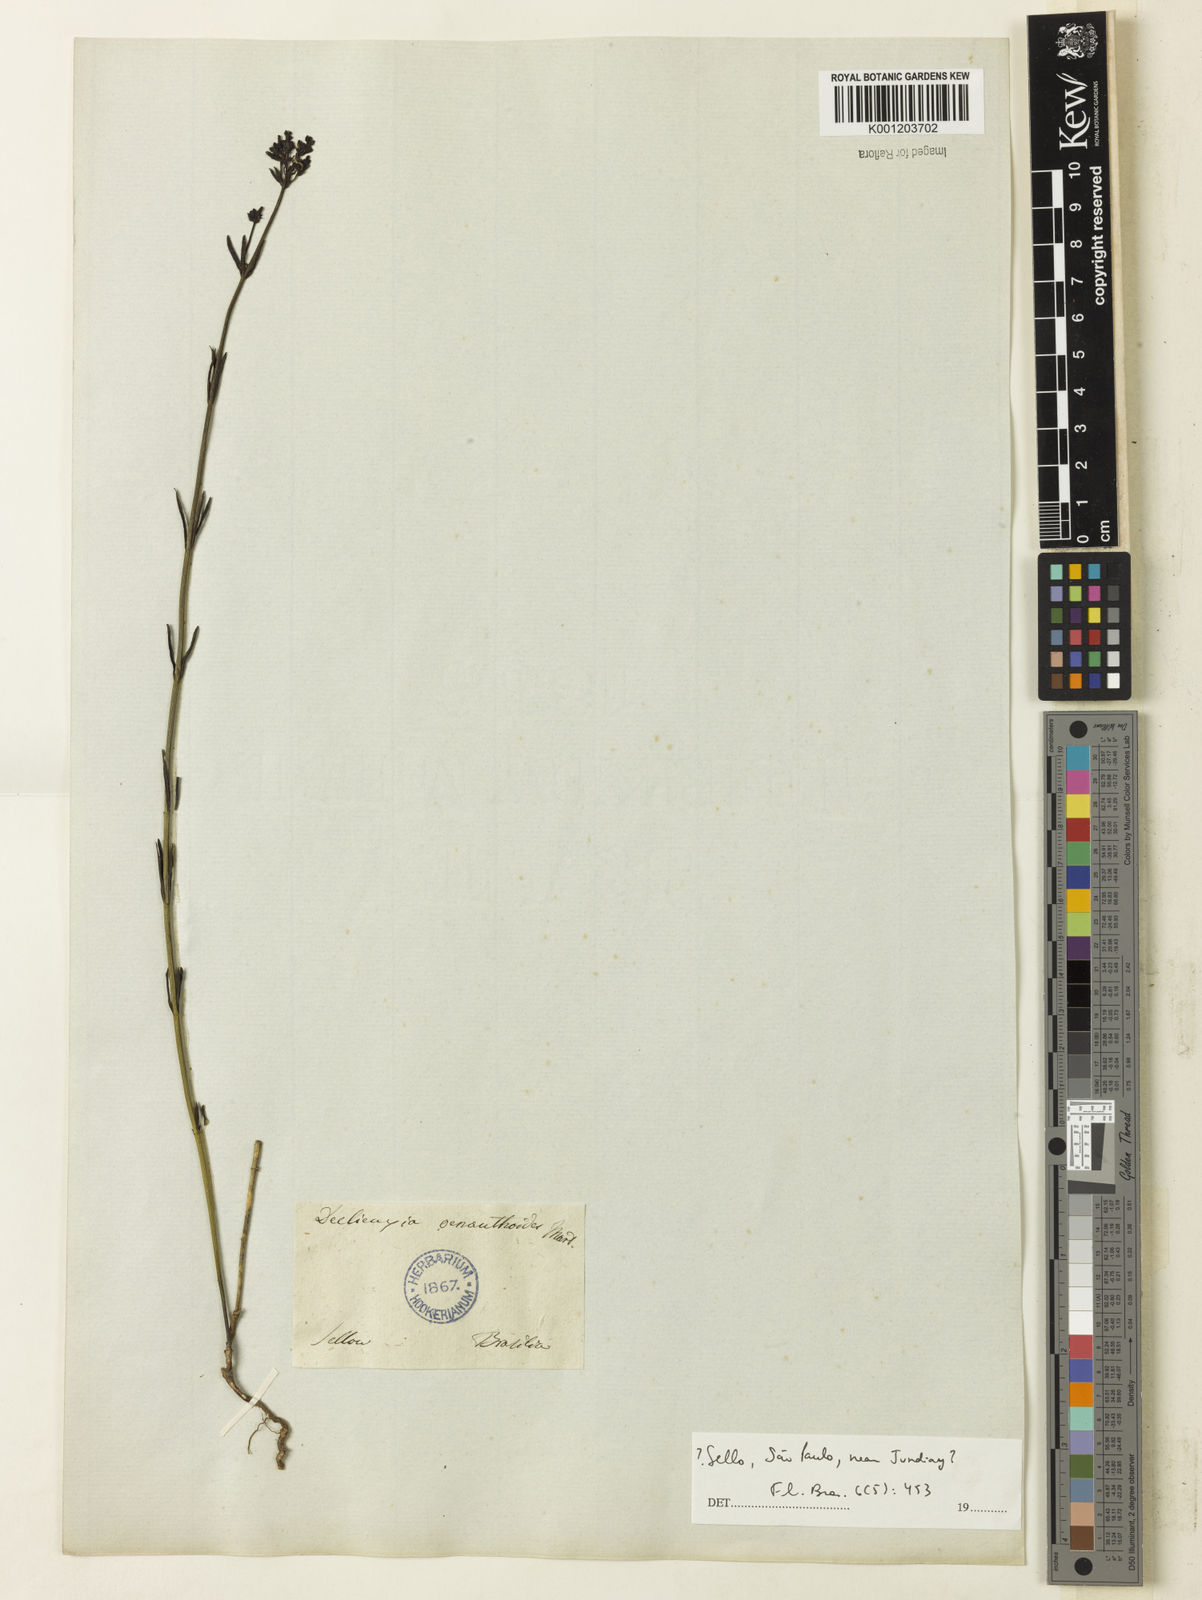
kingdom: Plantae
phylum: Tracheophyta
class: Magnoliopsida
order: Gentianales
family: Rubiaceae
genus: Declieuxia
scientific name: Declieuxia
